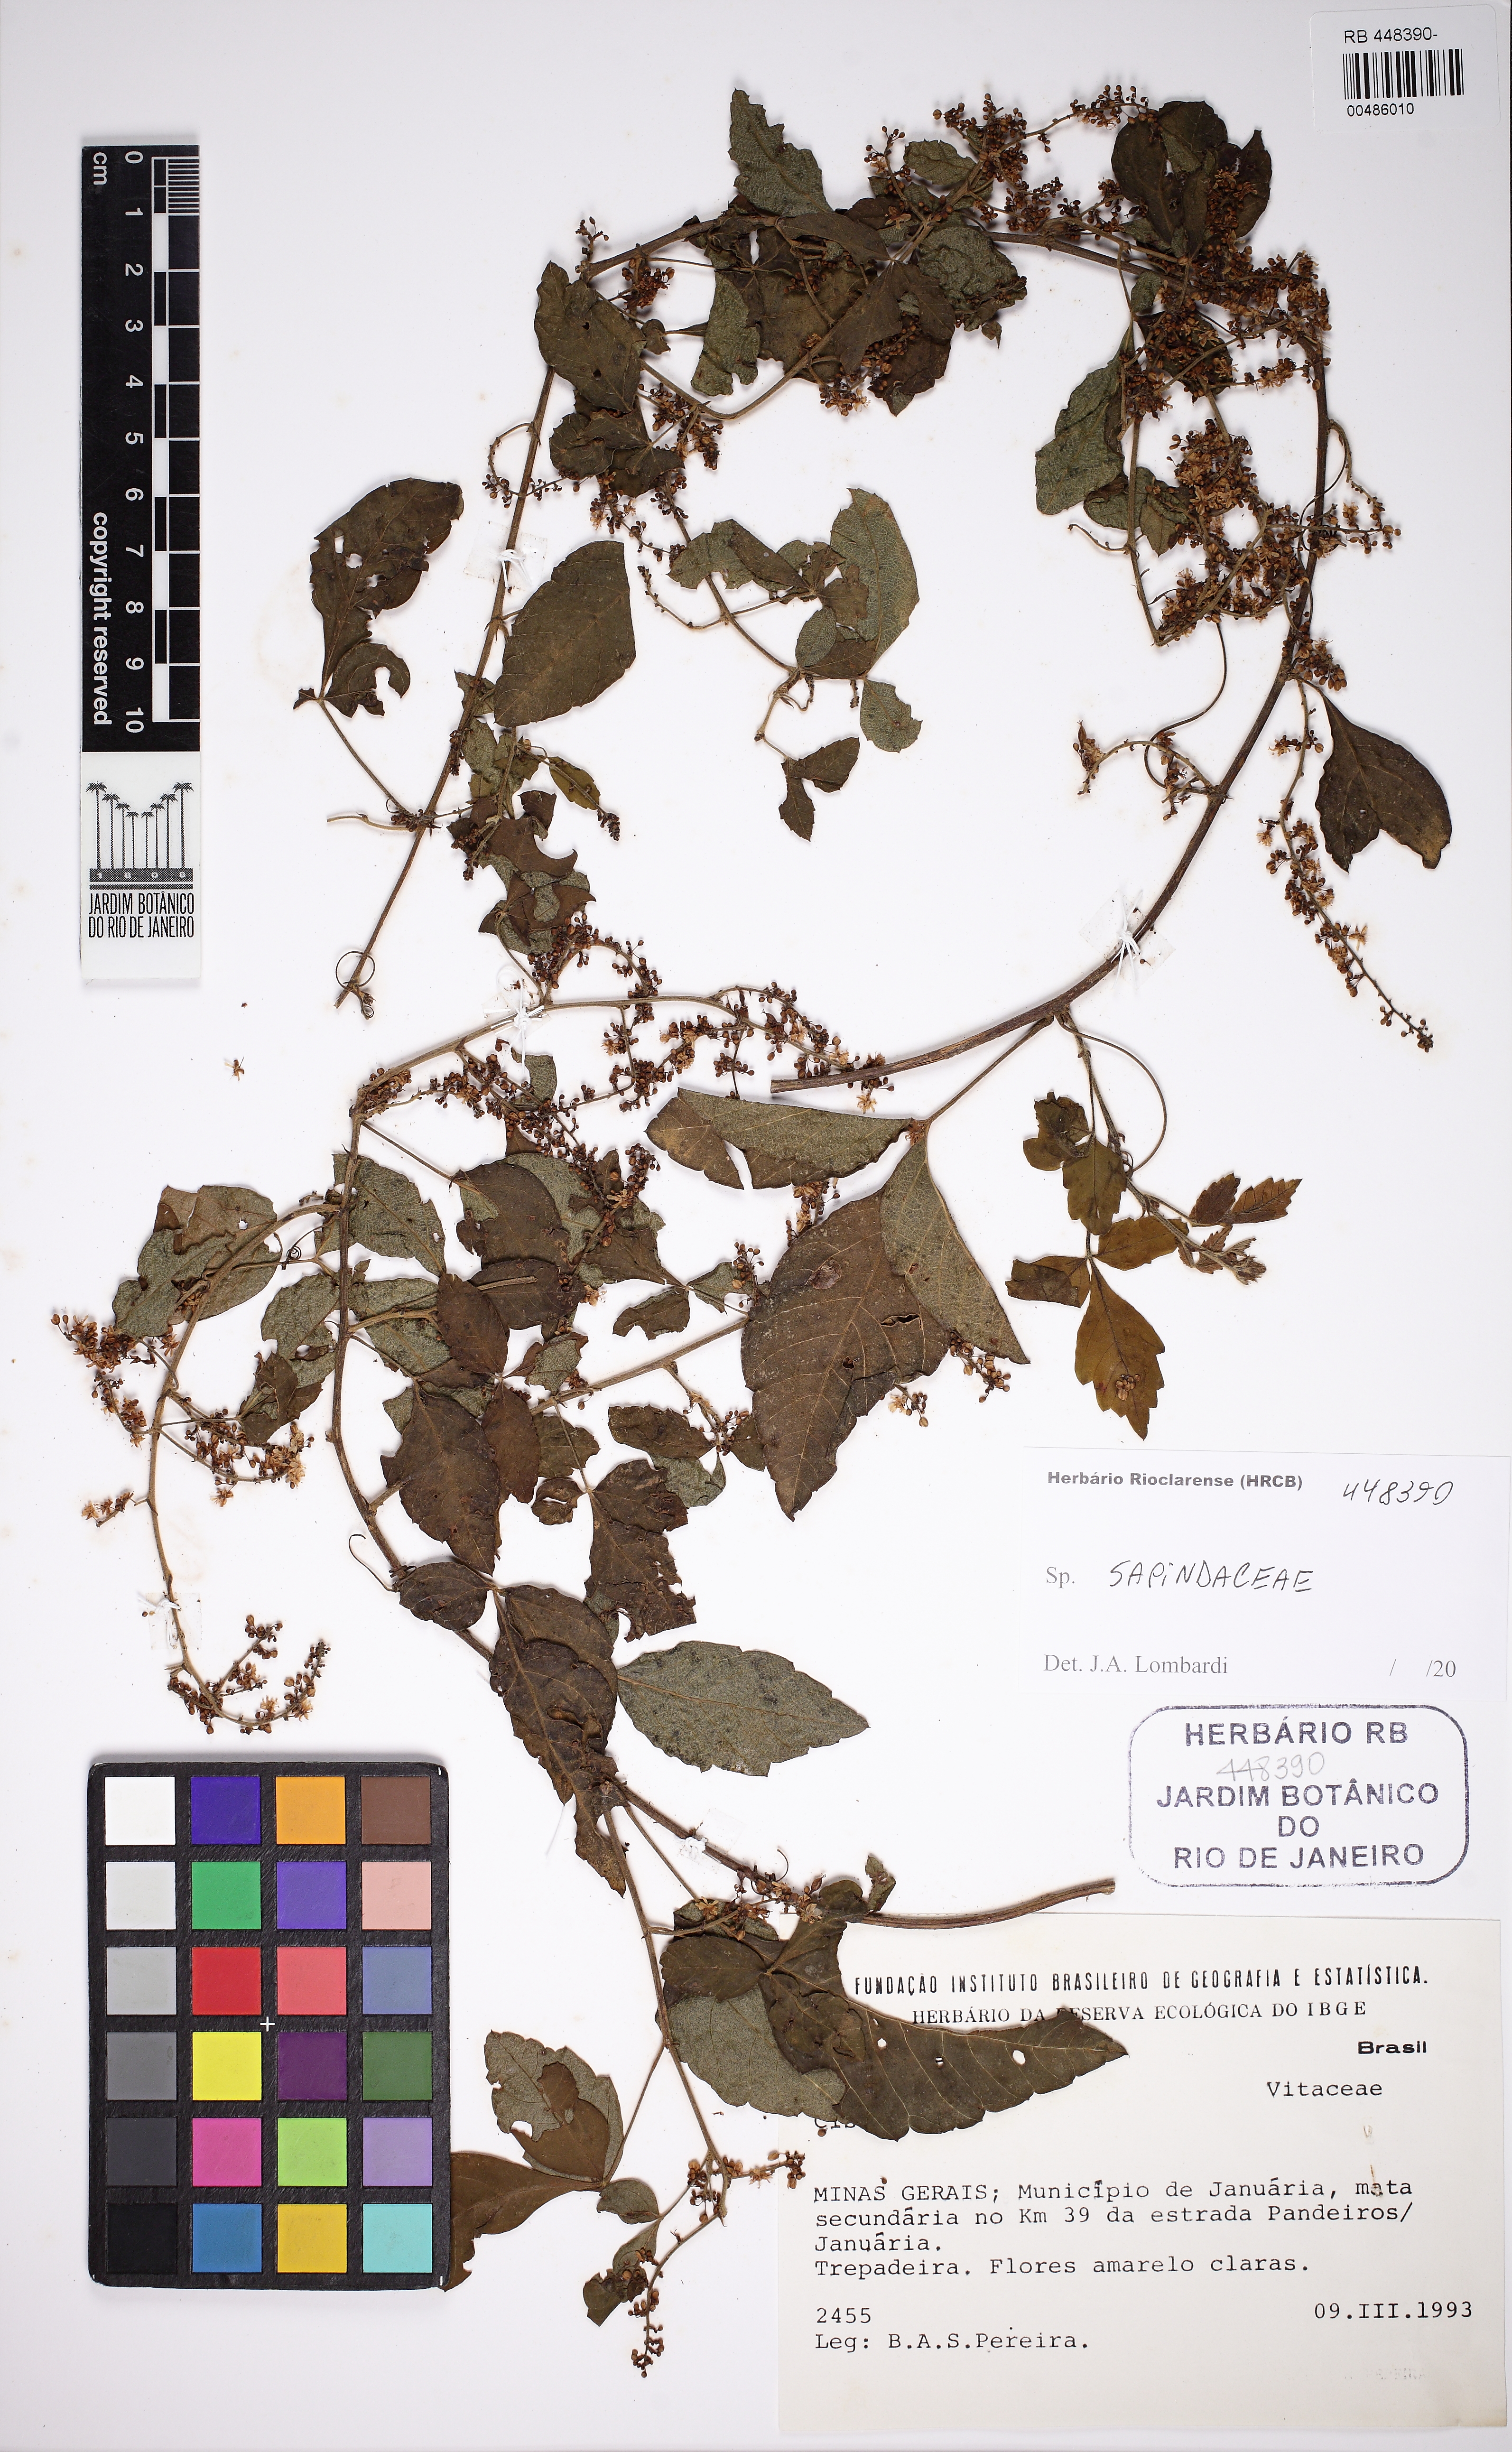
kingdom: Plantae
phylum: Tracheophyta
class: Magnoliopsida
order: Sapindales
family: Sapindaceae
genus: Cardiospermum
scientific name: Cardiospermum
